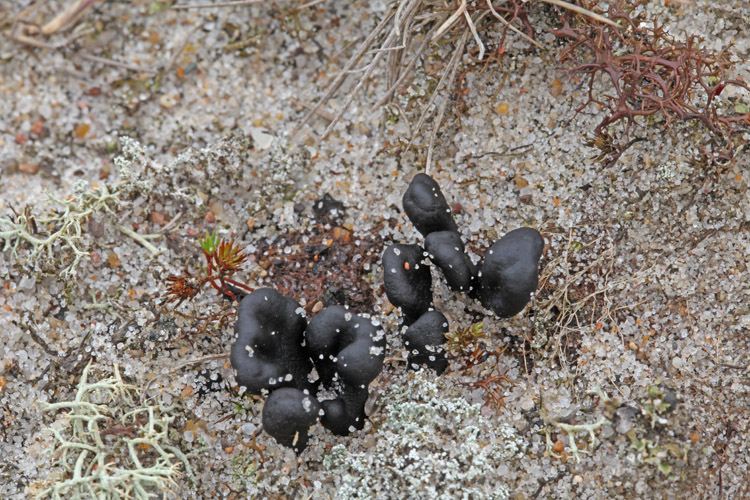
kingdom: Fungi
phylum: Ascomycota
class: Geoglossomycetes
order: Geoglossales
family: Geoglossaceae
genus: Sabuloglossum
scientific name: Sabuloglossum arenarium
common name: klit-jordtunge
